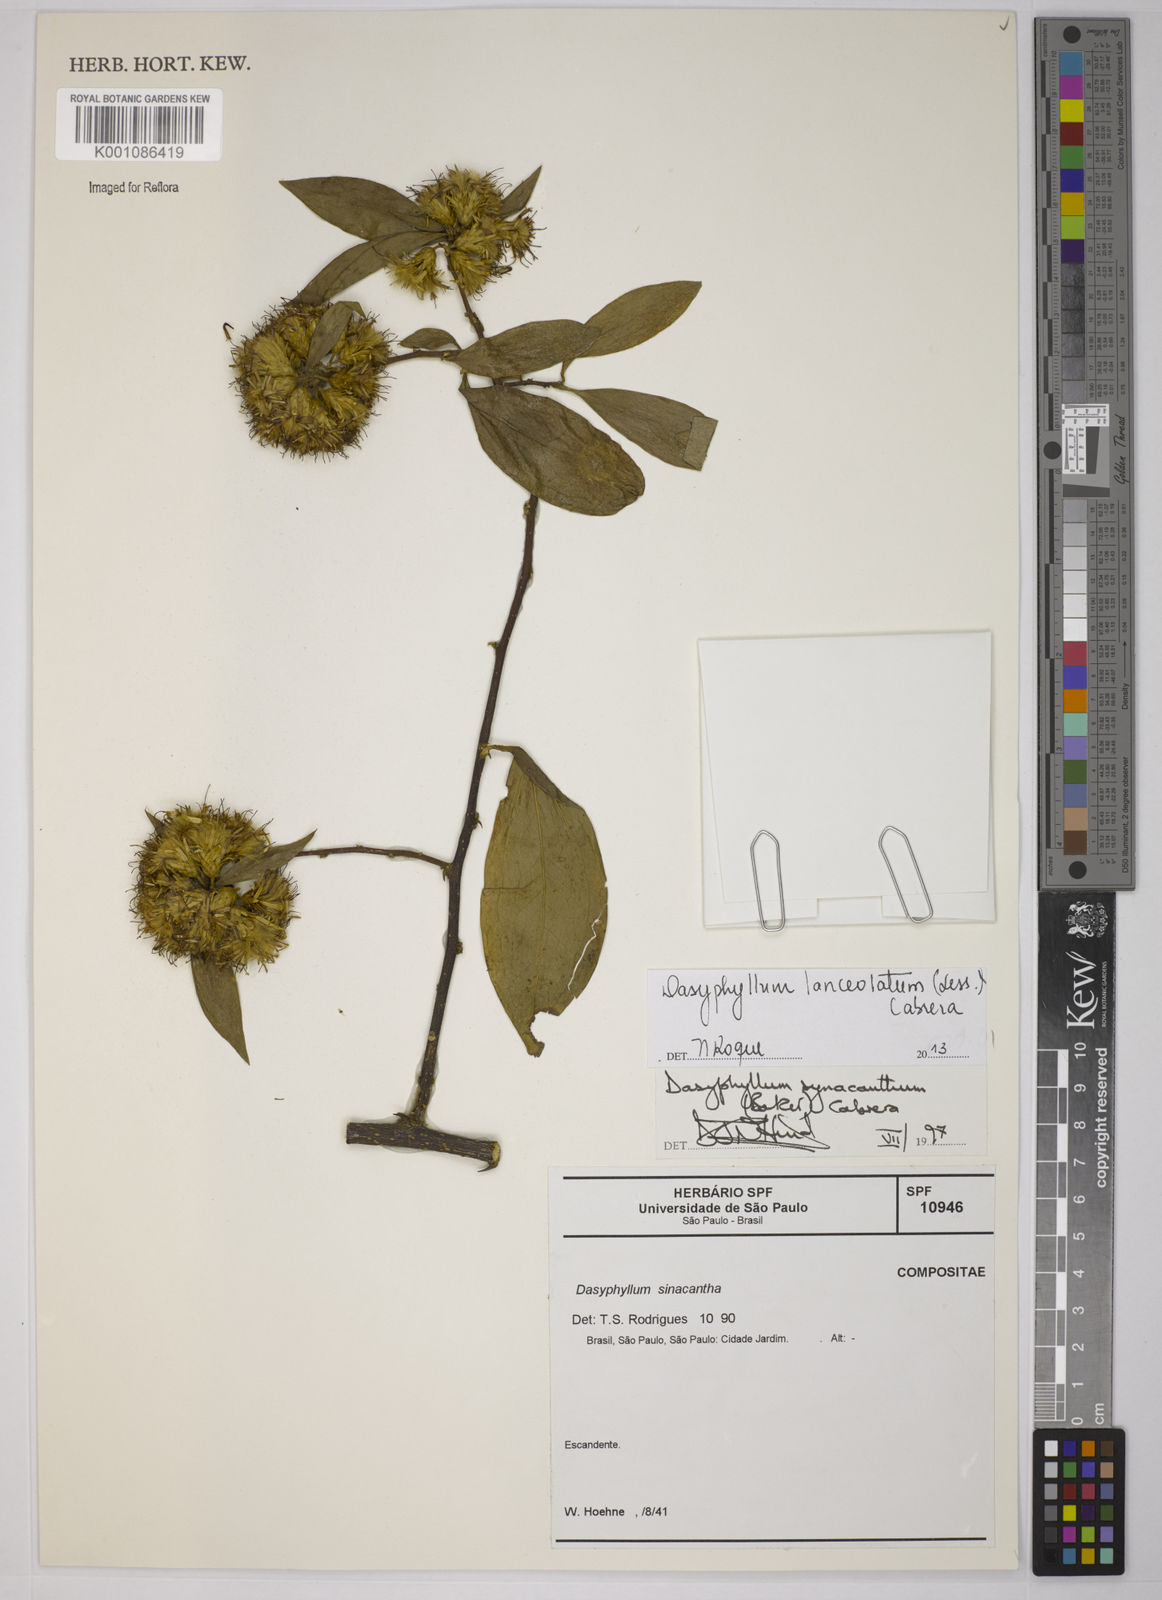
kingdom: Plantae
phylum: Tracheophyta
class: Magnoliopsida
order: Asterales
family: Asteraceae
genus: Dasyphyllum
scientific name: Dasyphyllum lanceolatum
